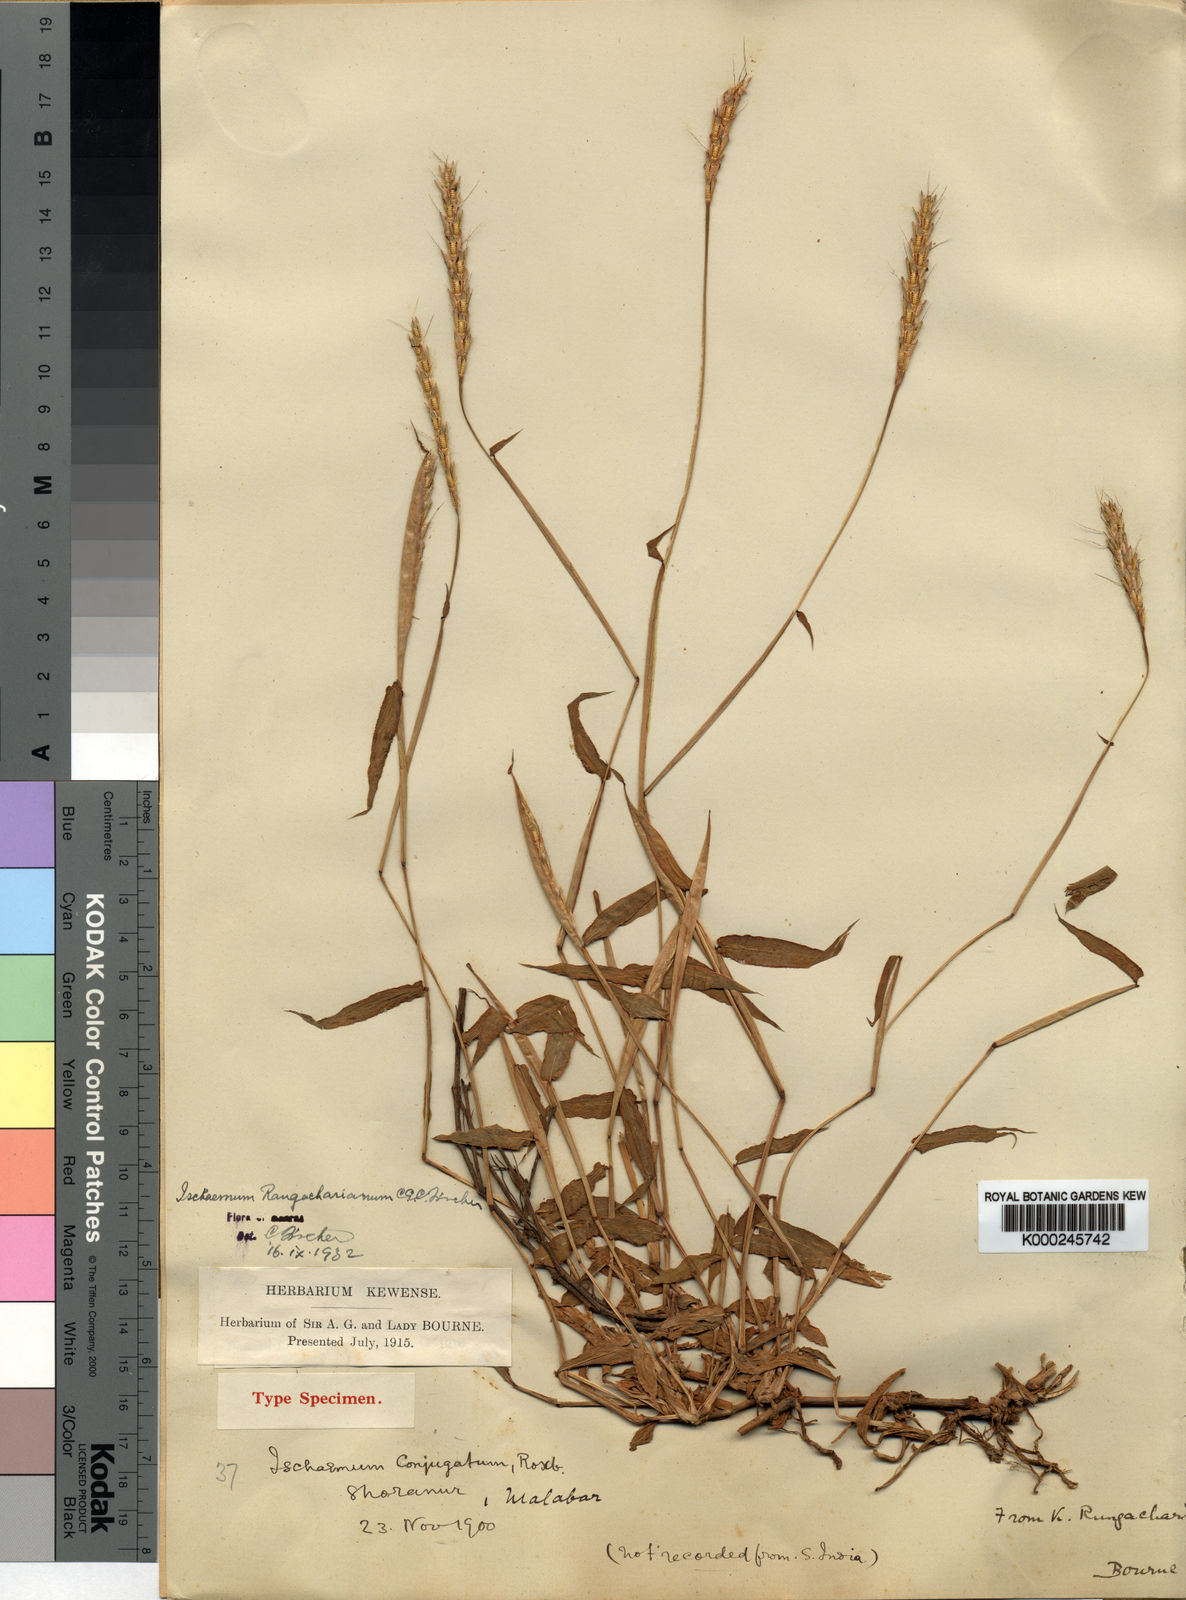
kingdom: Plantae
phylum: Tracheophyta
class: Liliopsida
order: Poales
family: Poaceae
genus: Ischaemum
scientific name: Ischaemum rangacharianum
